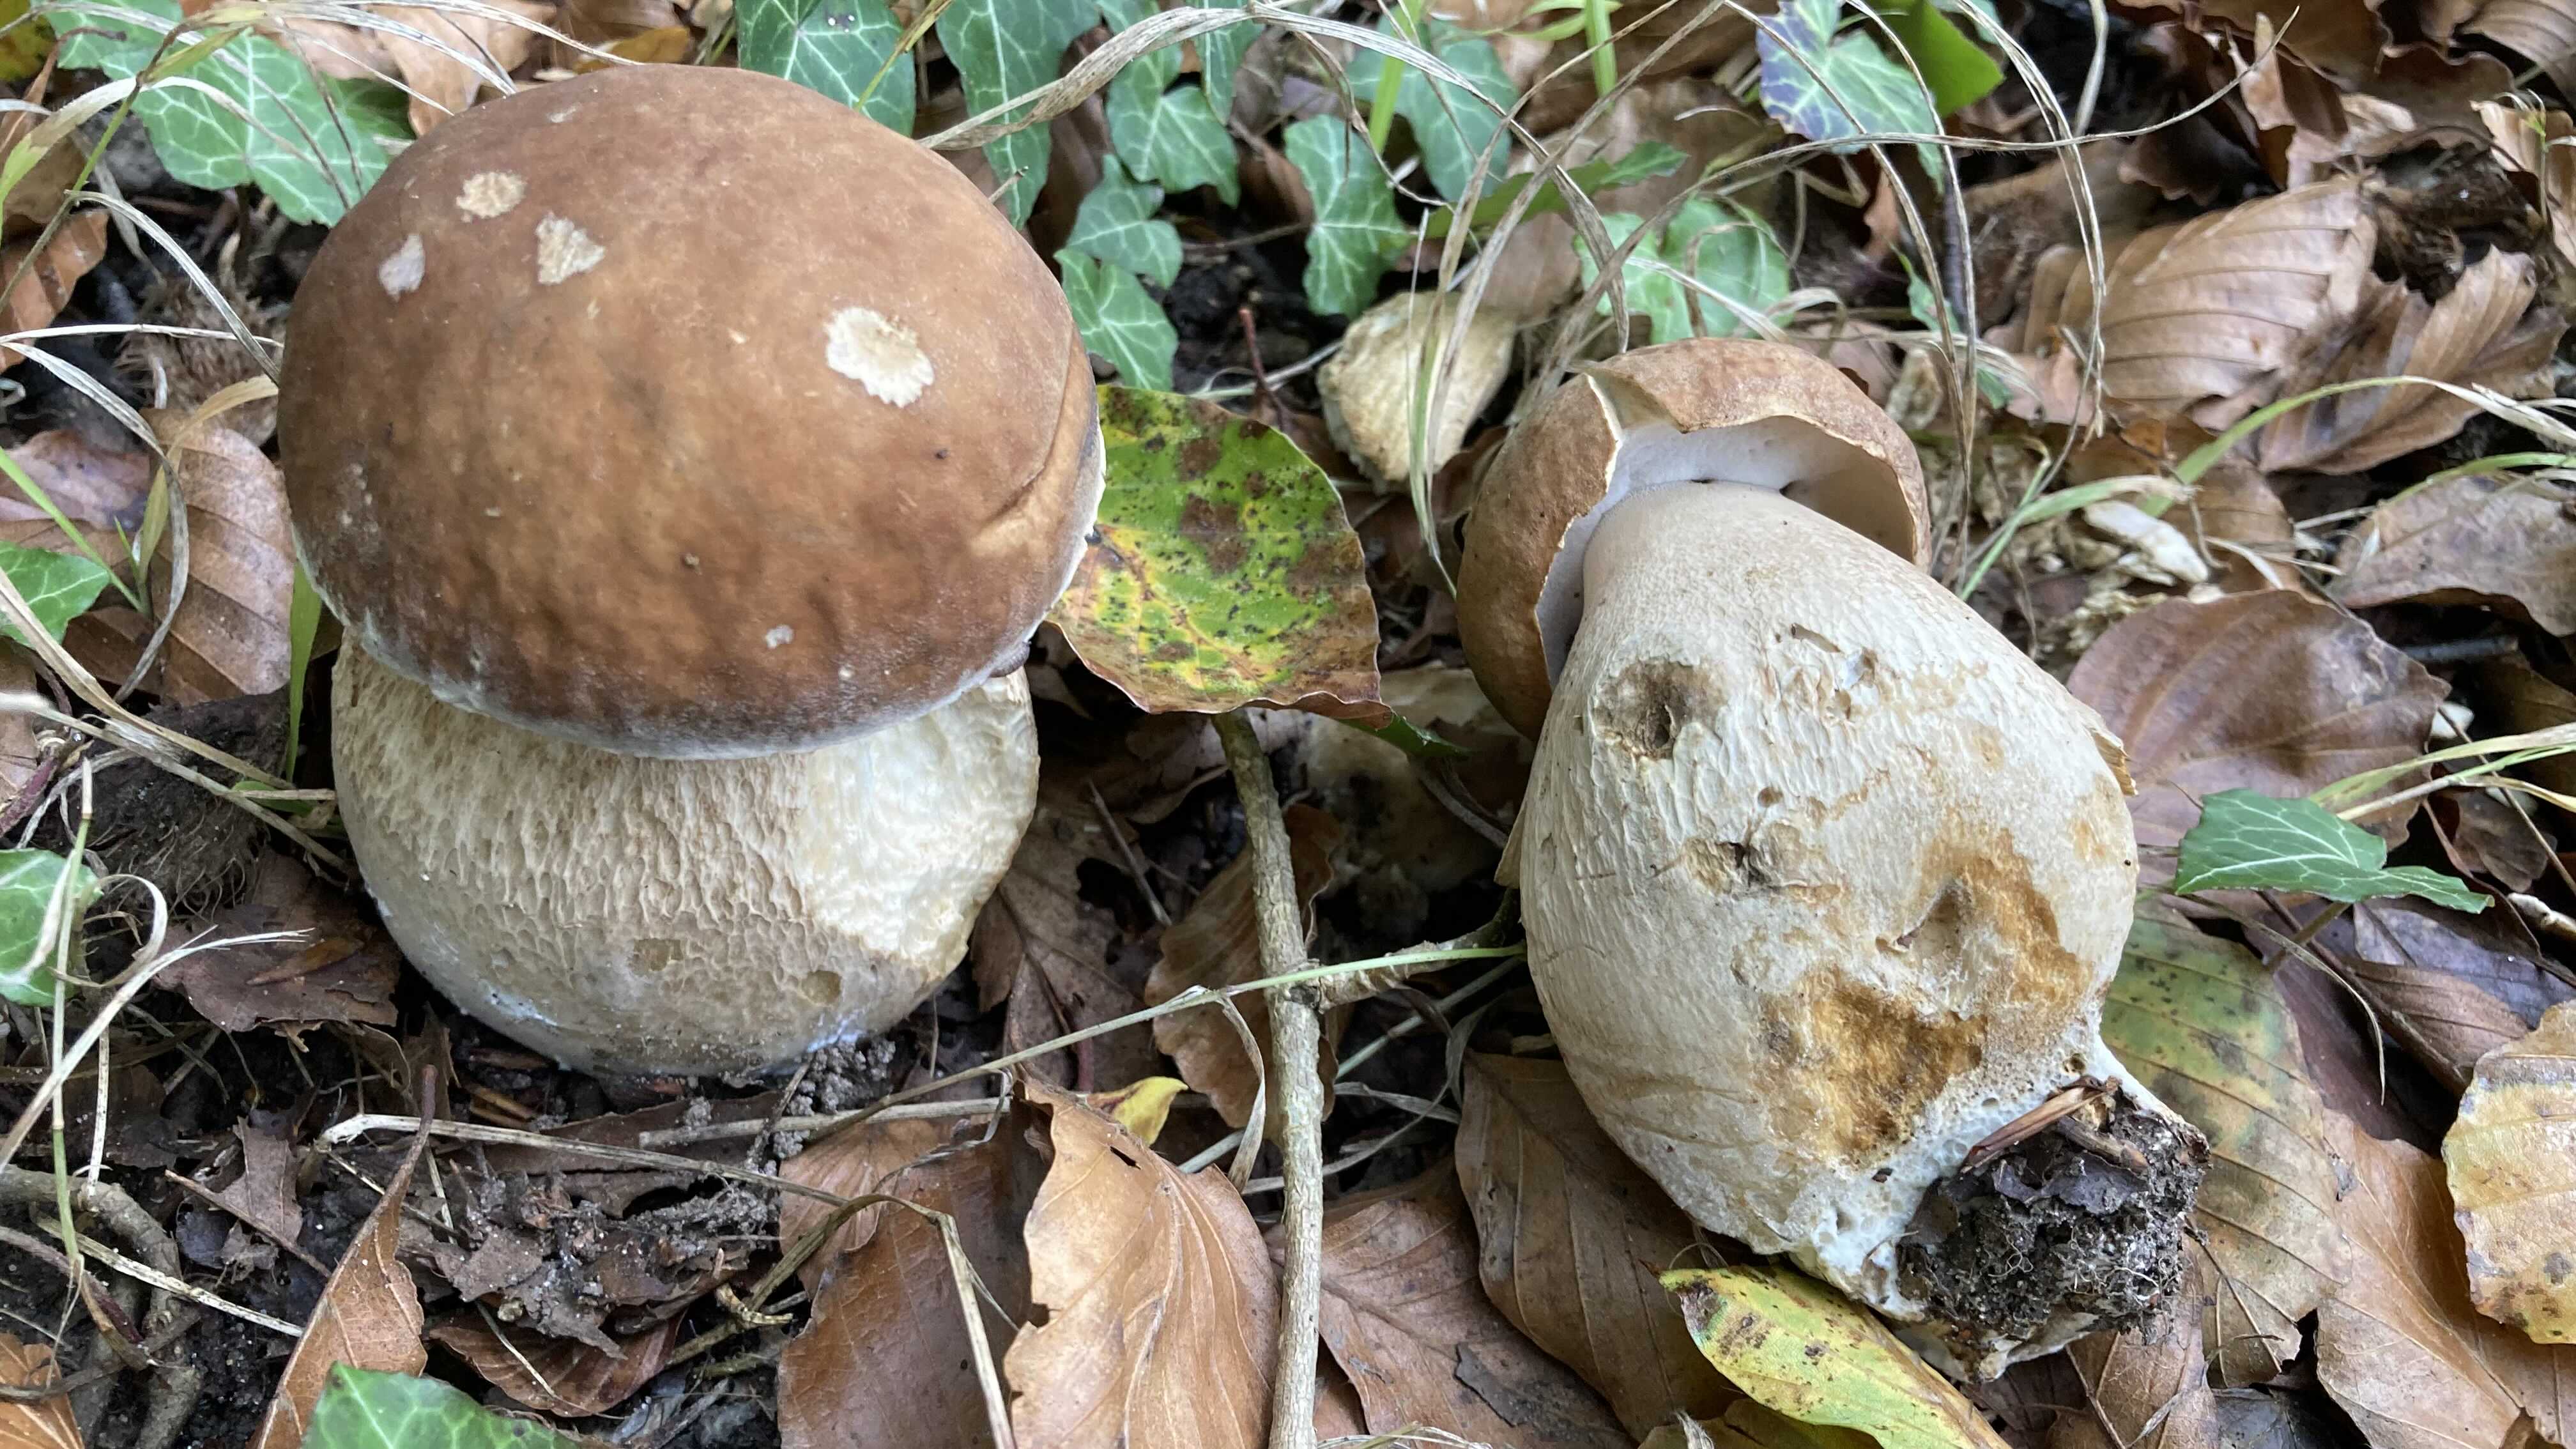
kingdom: Fungi
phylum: Basidiomycota
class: Agaricomycetes
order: Boletales
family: Boletaceae
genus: Boletus
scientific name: Boletus reticulatus
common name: sommer-rørhat
